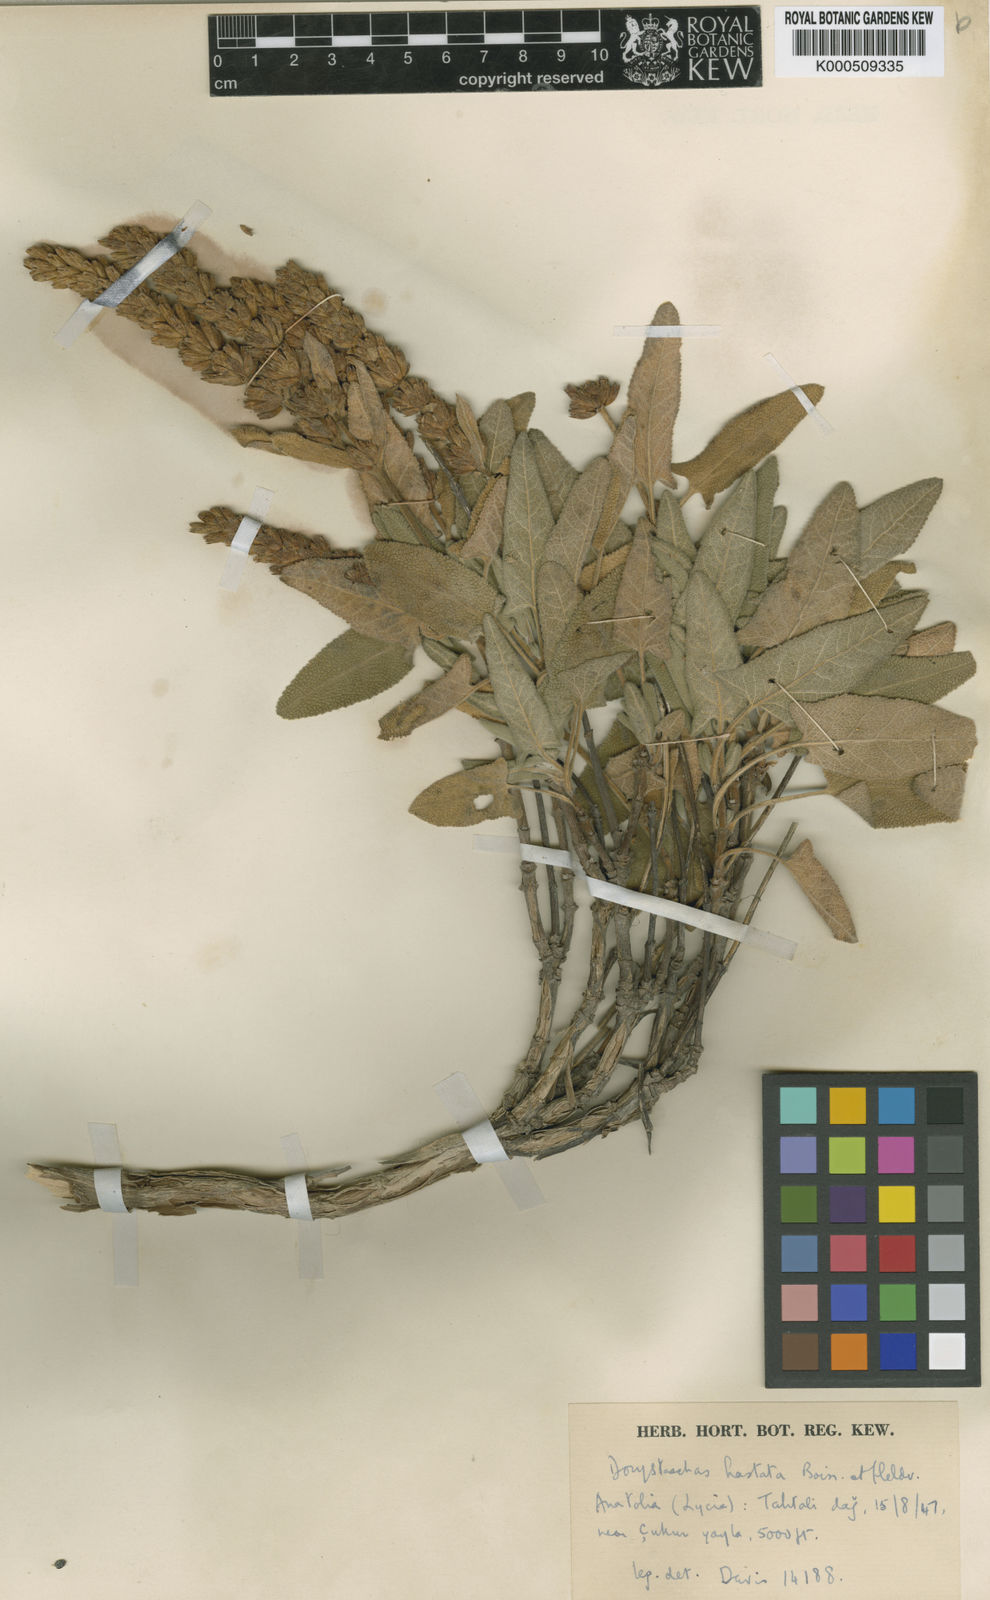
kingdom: Plantae
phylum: Tracheophyta
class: Magnoliopsida
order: Lamiales
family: Lamiaceae
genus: Salvia
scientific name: Salvia dorystaechas
